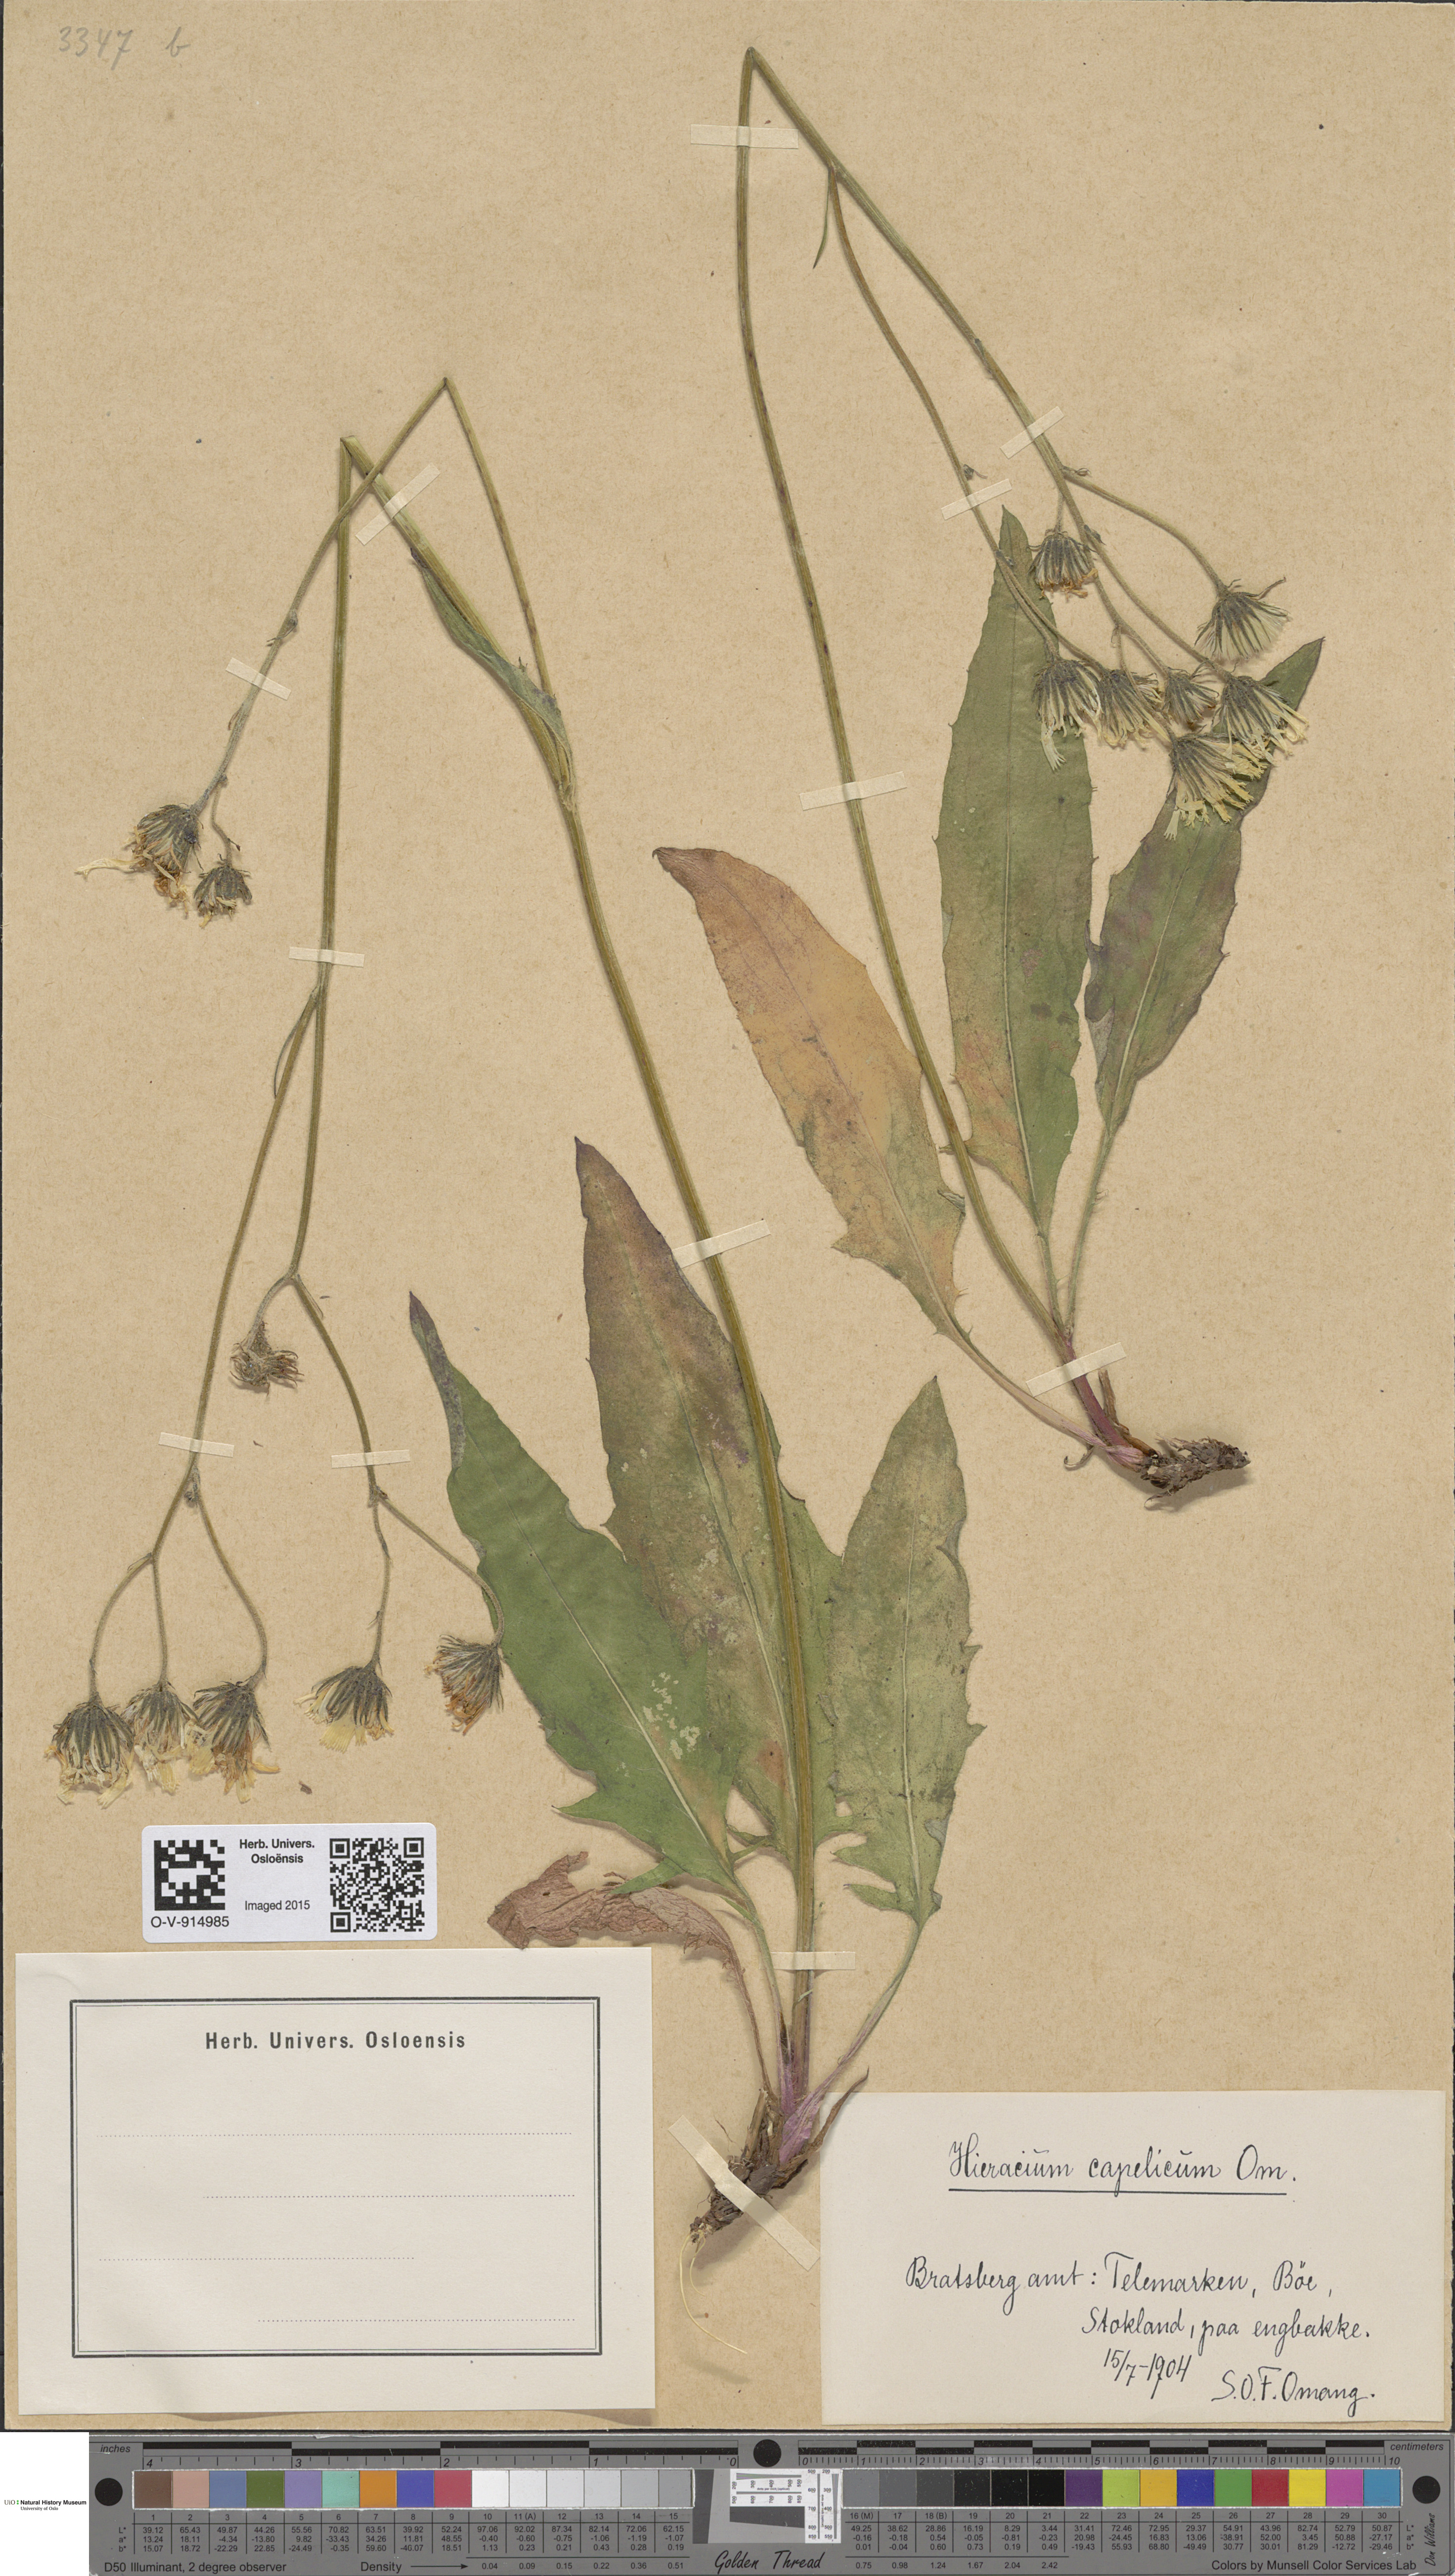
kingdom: Plantae
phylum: Tracheophyta
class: Magnoliopsida
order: Asterales
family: Asteraceae
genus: Hieracium
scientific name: Hieracium
